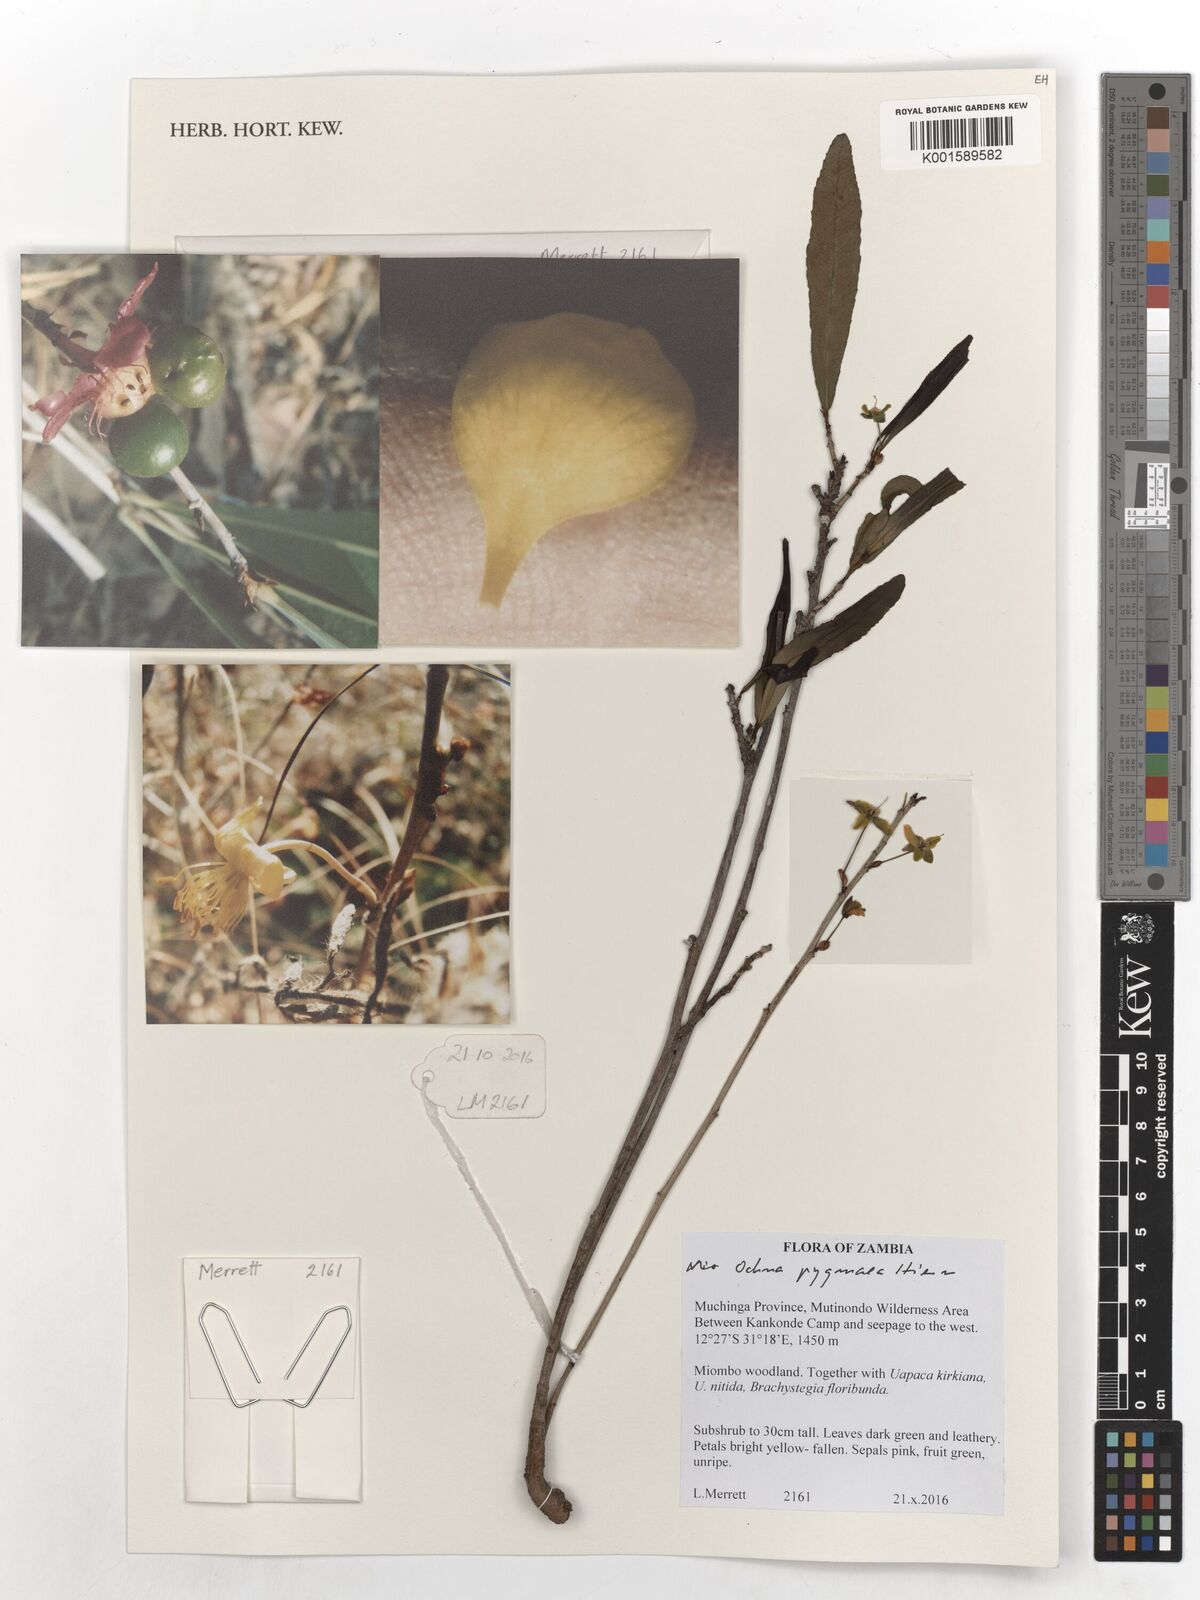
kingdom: Plantae
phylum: Tracheophyta
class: Magnoliopsida
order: Malpighiales
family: Ochnaceae
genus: Ochna
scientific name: Ochna pygmaea
